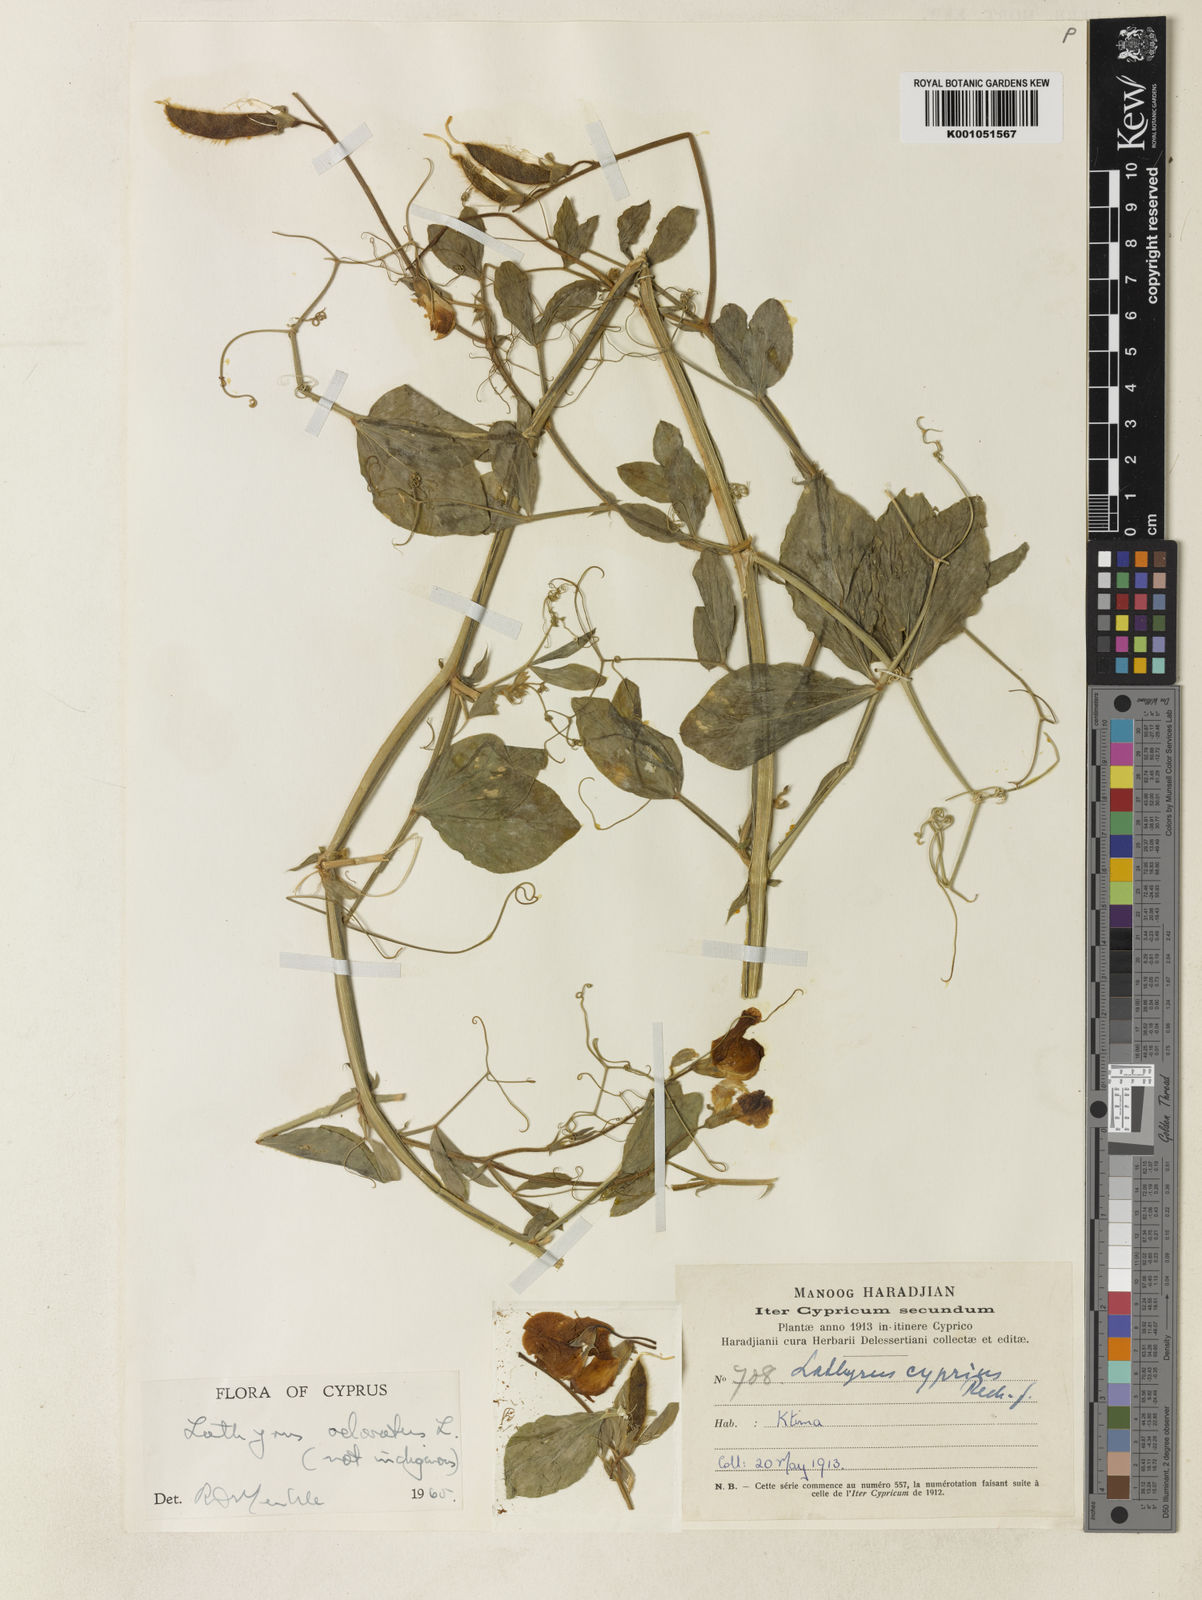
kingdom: Plantae
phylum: Tracheophyta
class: Magnoliopsida
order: Fabales
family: Fabaceae
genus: Lathyrus
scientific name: Lathyrus odoratus
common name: Sweet pea
